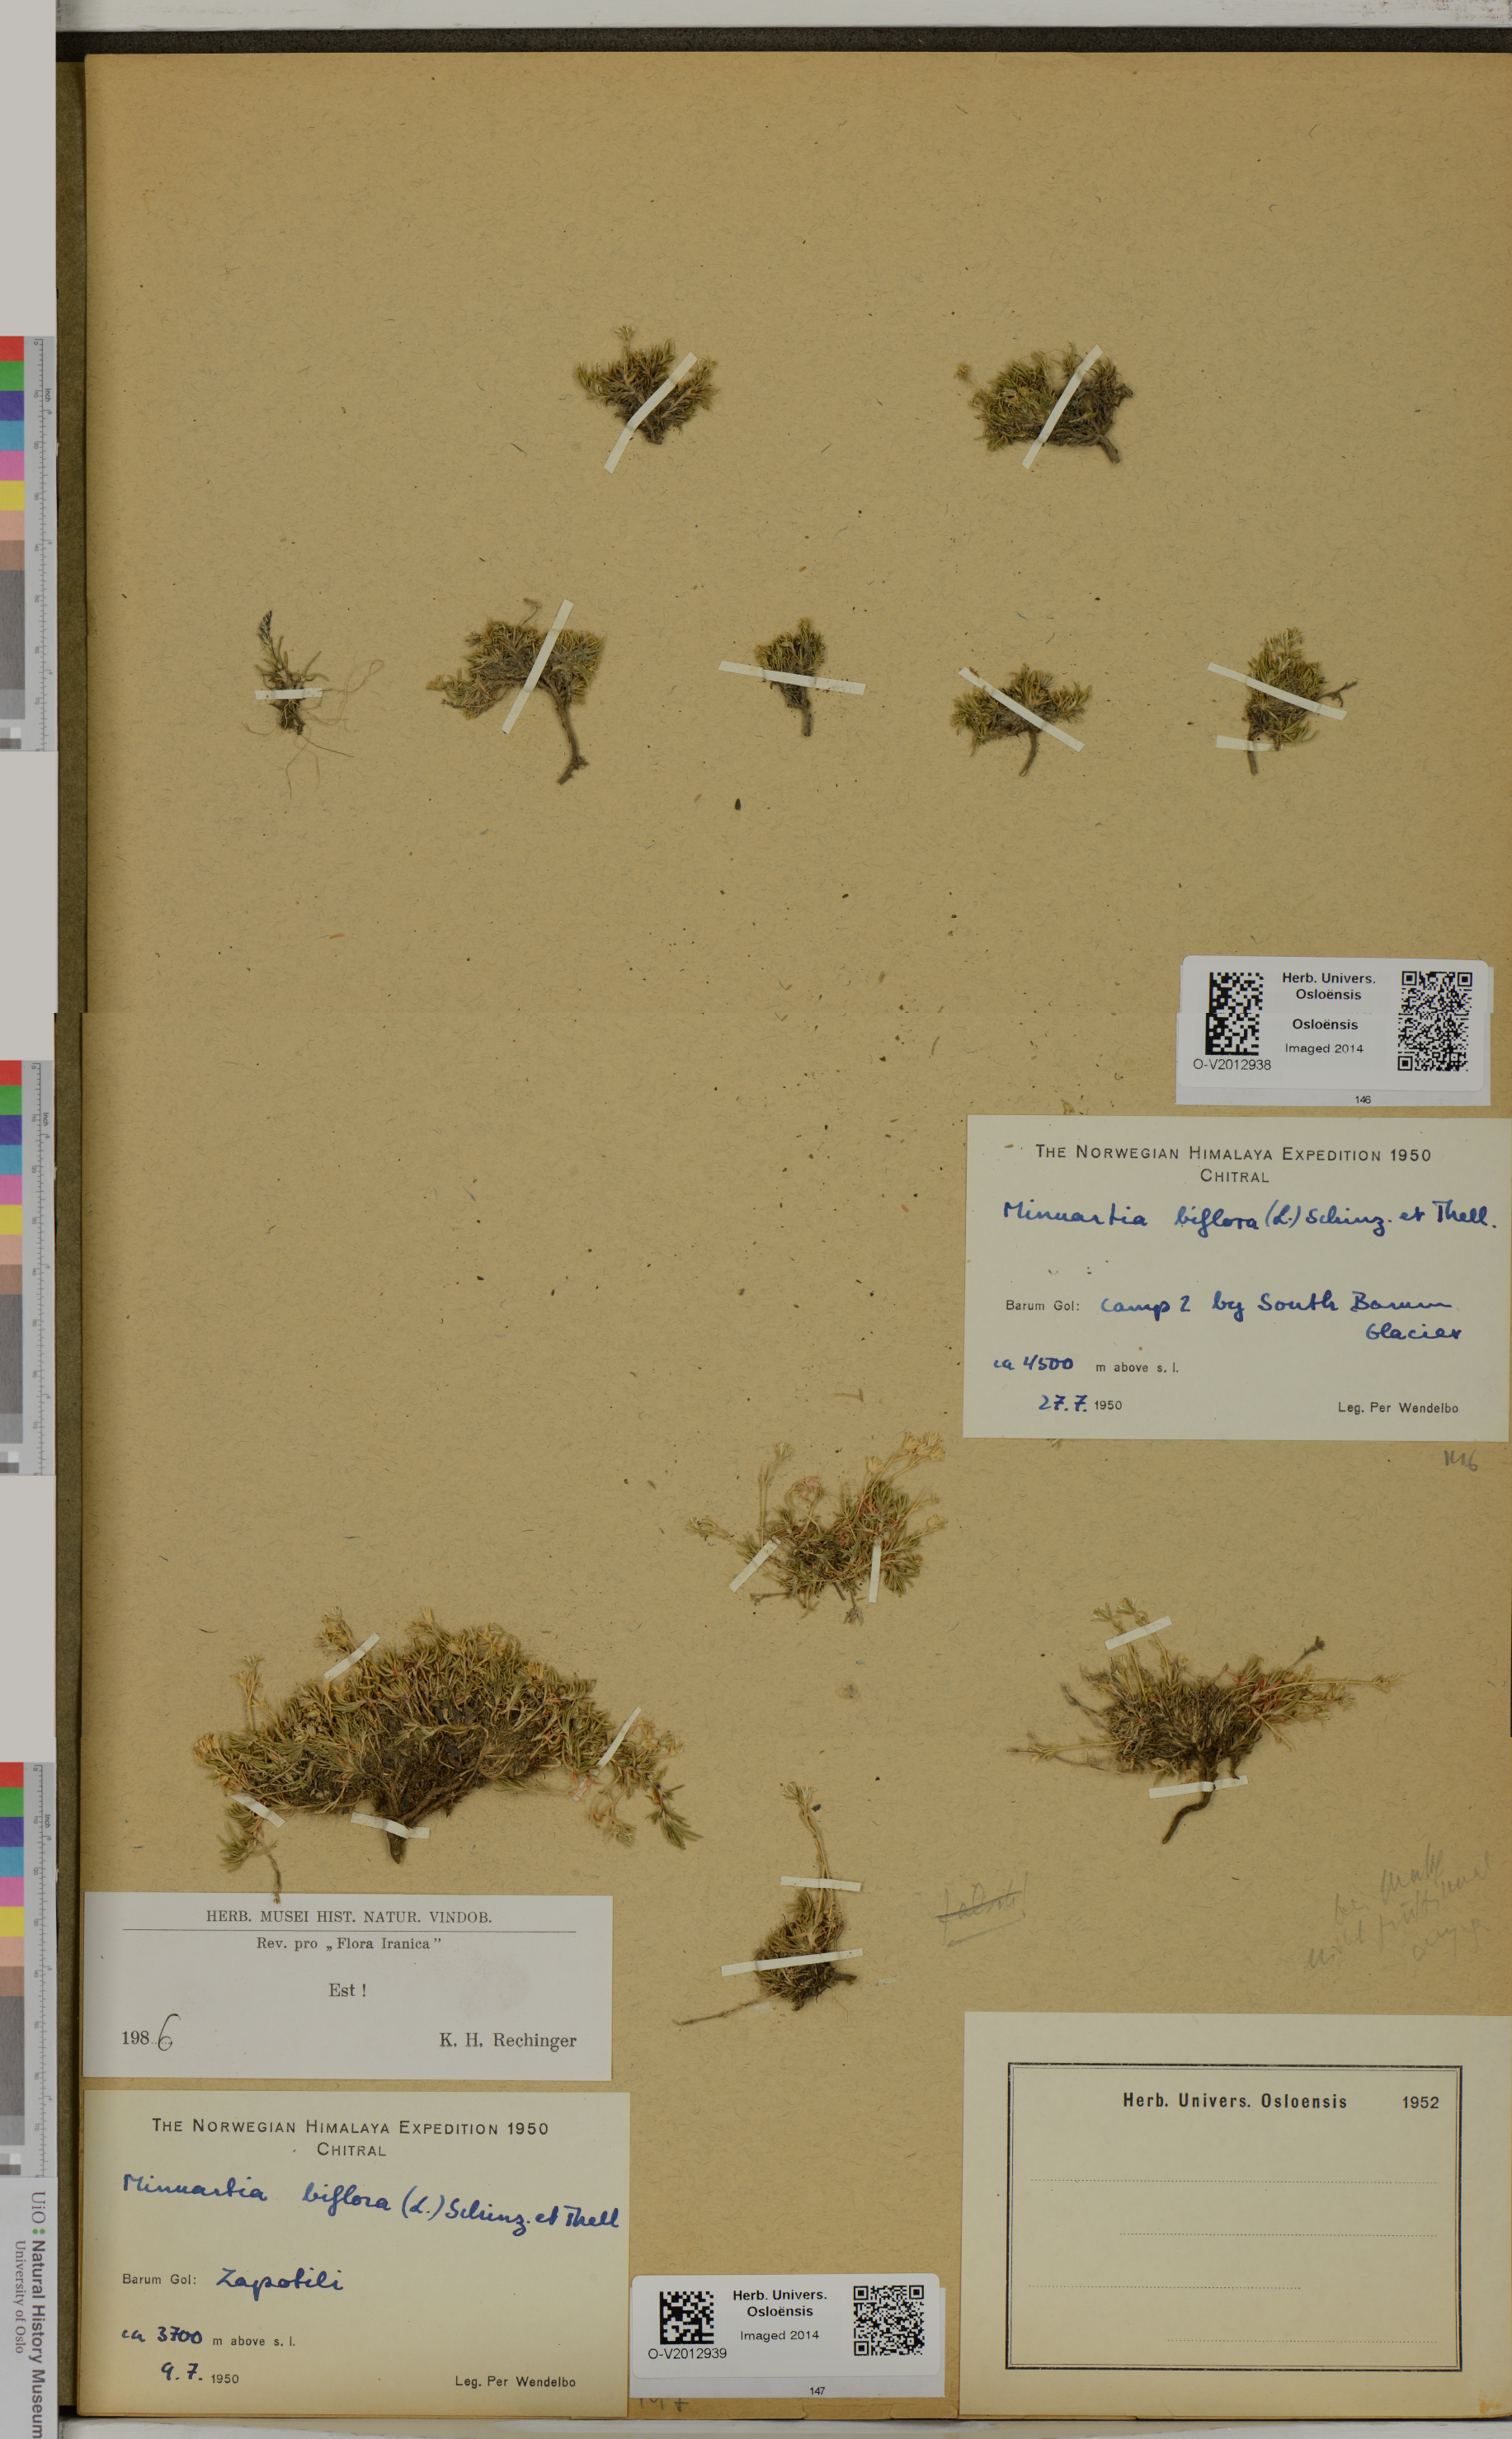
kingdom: Plantae
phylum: Tracheophyta
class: Magnoliopsida
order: Caryophyllales
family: Caryophyllaceae
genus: Cherleria
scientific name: Cherleria biflora
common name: Mountain sandwort
